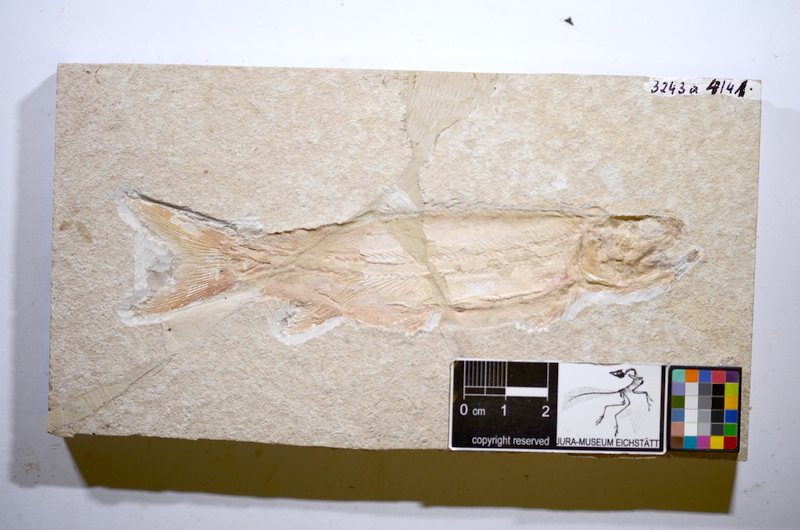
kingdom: Animalia
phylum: Chordata
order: Amiiformes
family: Caturidae
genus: Amblysemius
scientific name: Amblysemius pachyurus
